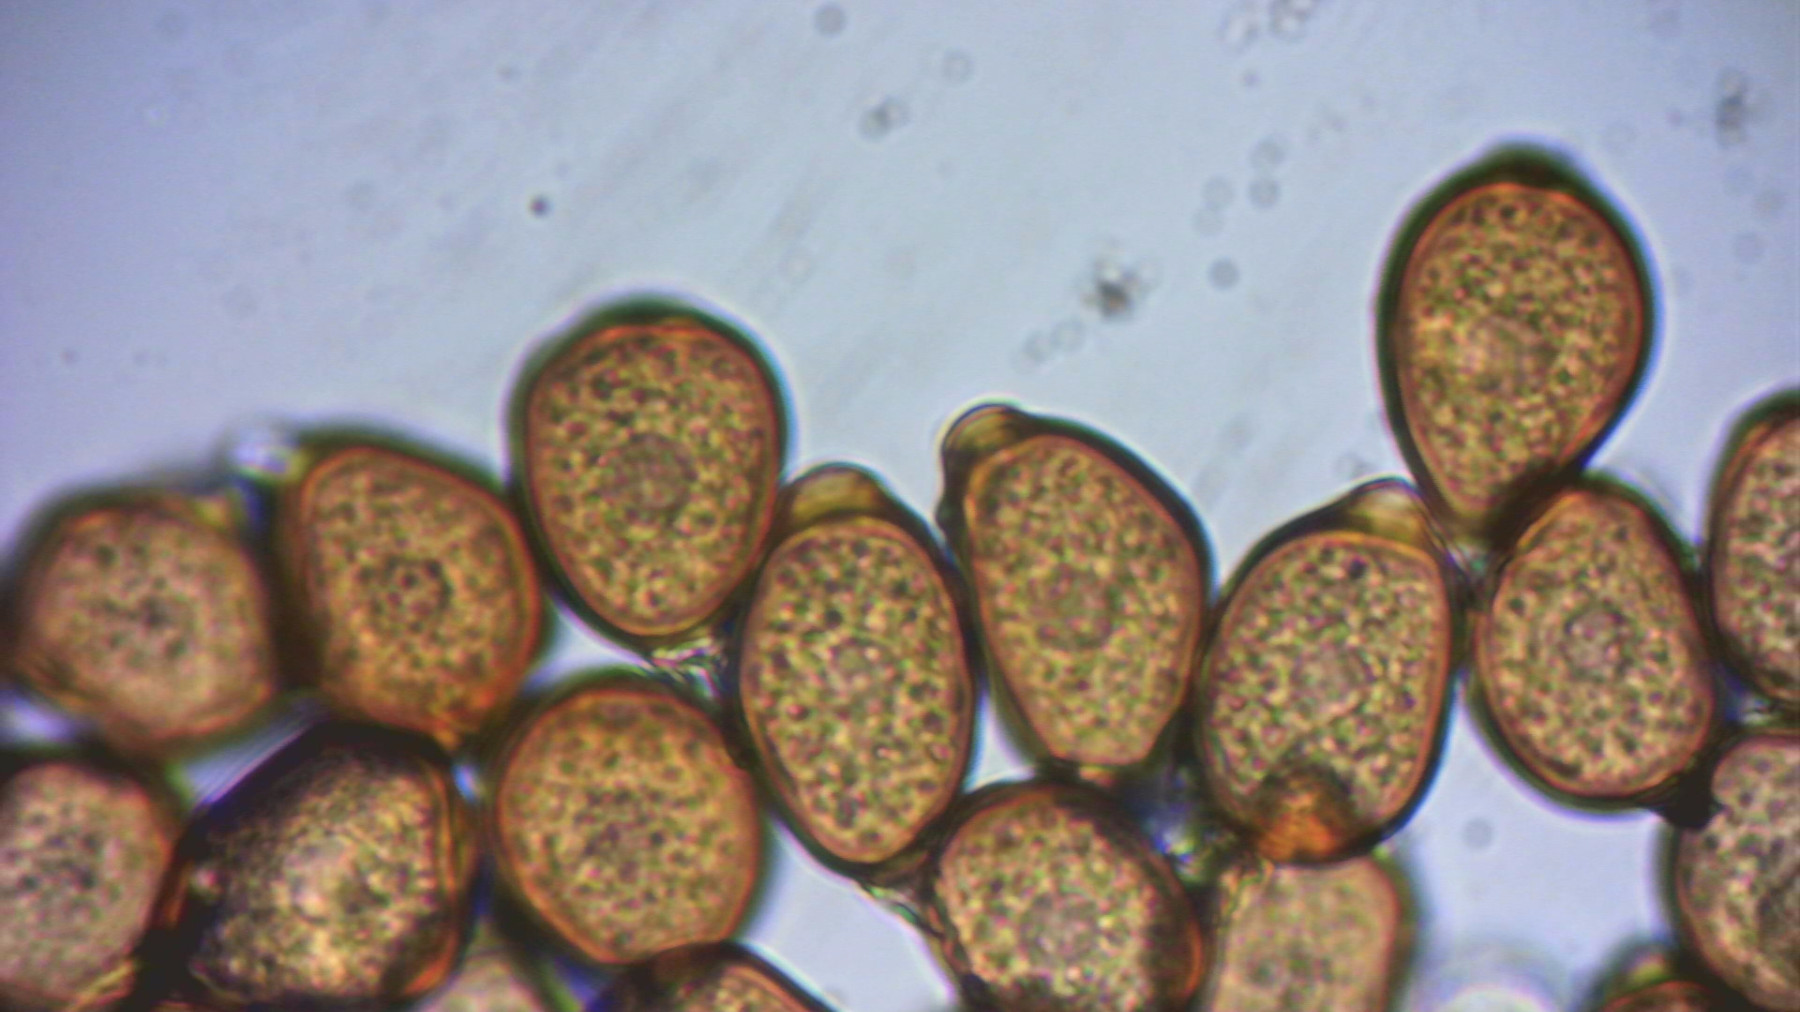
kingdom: Fungi
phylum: Basidiomycota
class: Pucciniomycetes
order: Pucciniales
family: Pucciniaceae
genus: Uromyces
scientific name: Uromyces ficariae
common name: vorterod-encellerust
